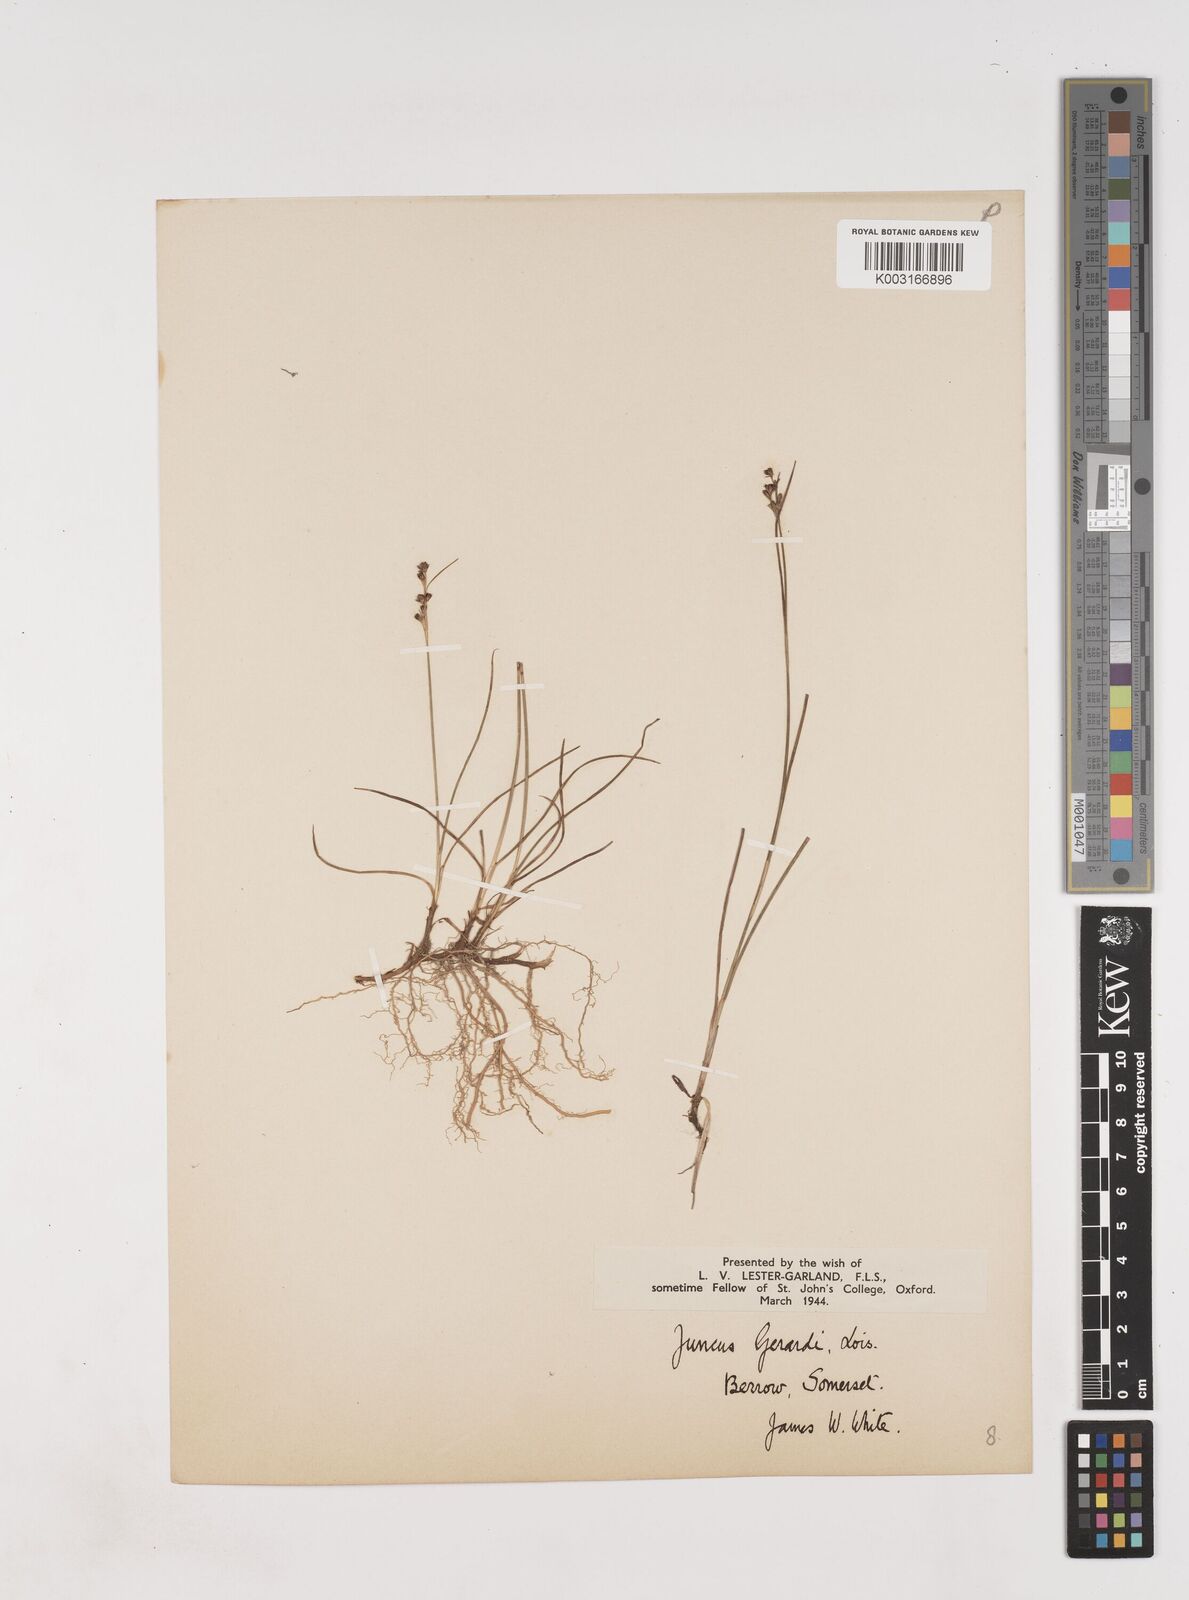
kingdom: Plantae
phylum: Tracheophyta
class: Liliopsida
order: Poales
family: Juncaceae
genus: Juncus
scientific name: Juncus gerardi
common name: Saltmarsh rush
